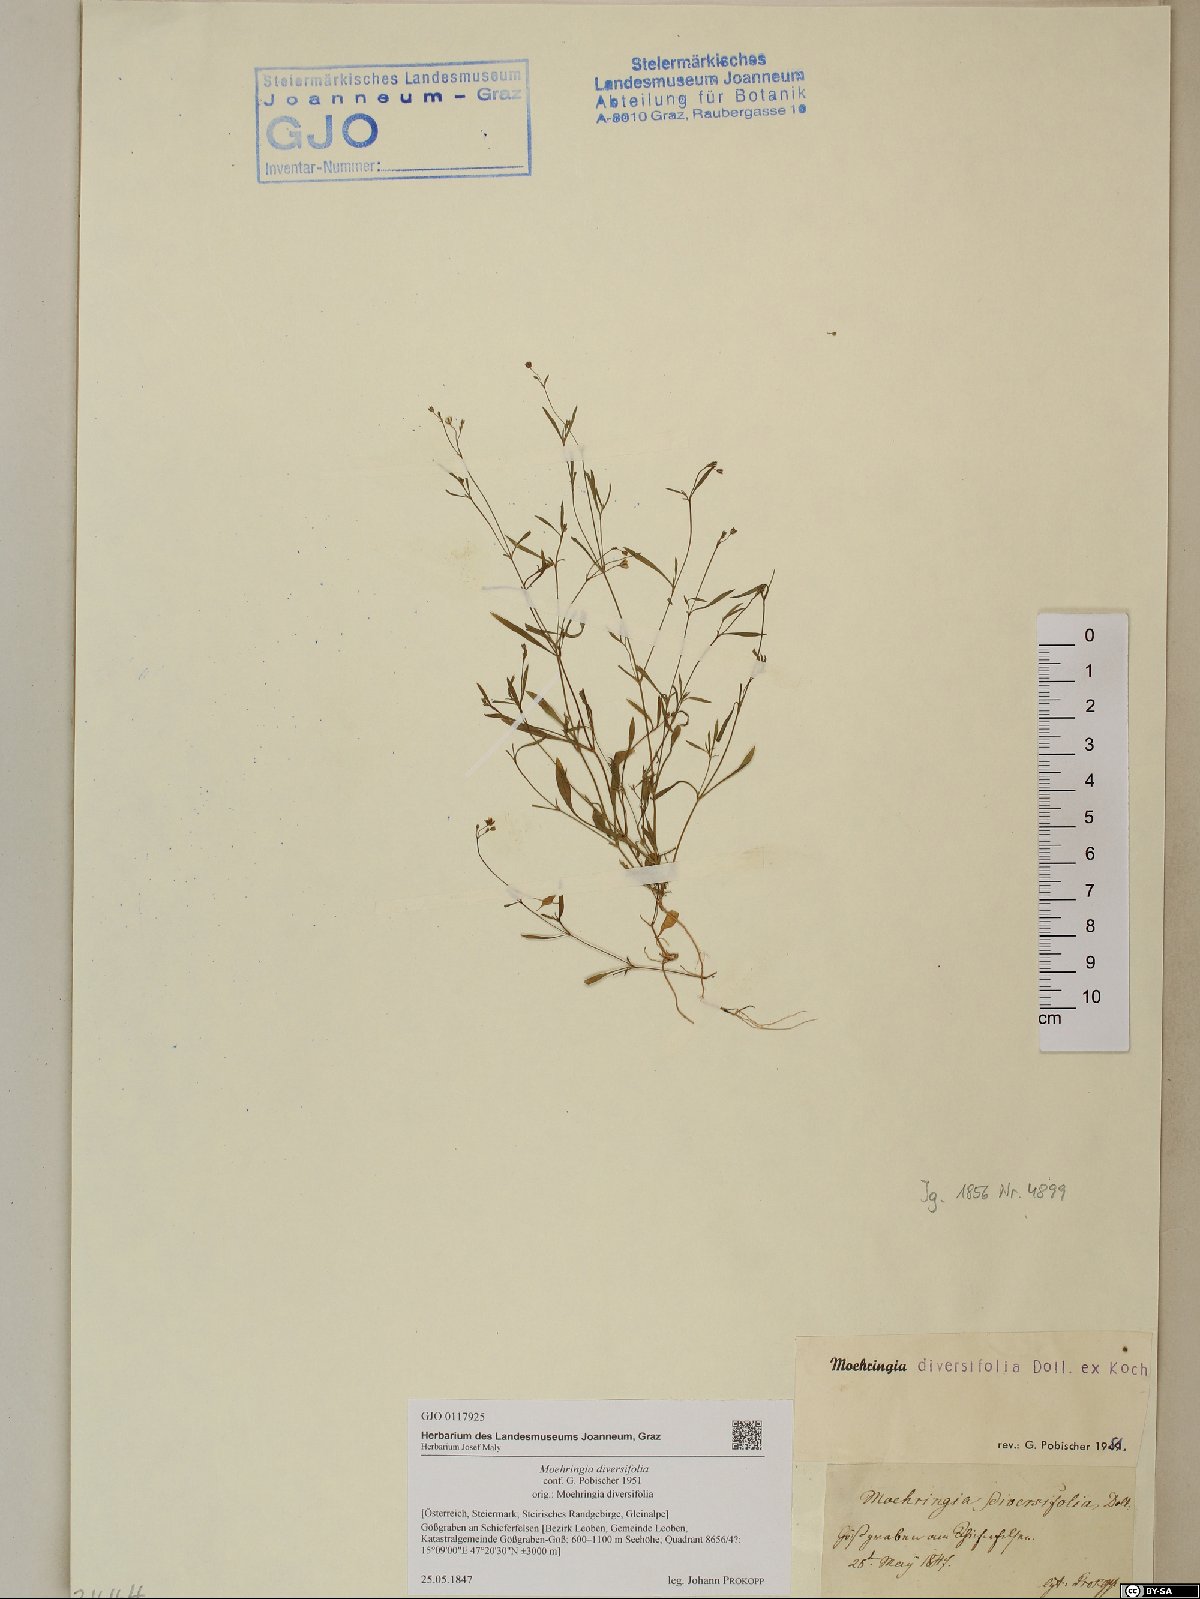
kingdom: Plantae
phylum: Tracheophyta
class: Magnoliopsida
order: Caryophyllales
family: Caryophyllaceae
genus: Moehringia
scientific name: Moehringia diversifolia
